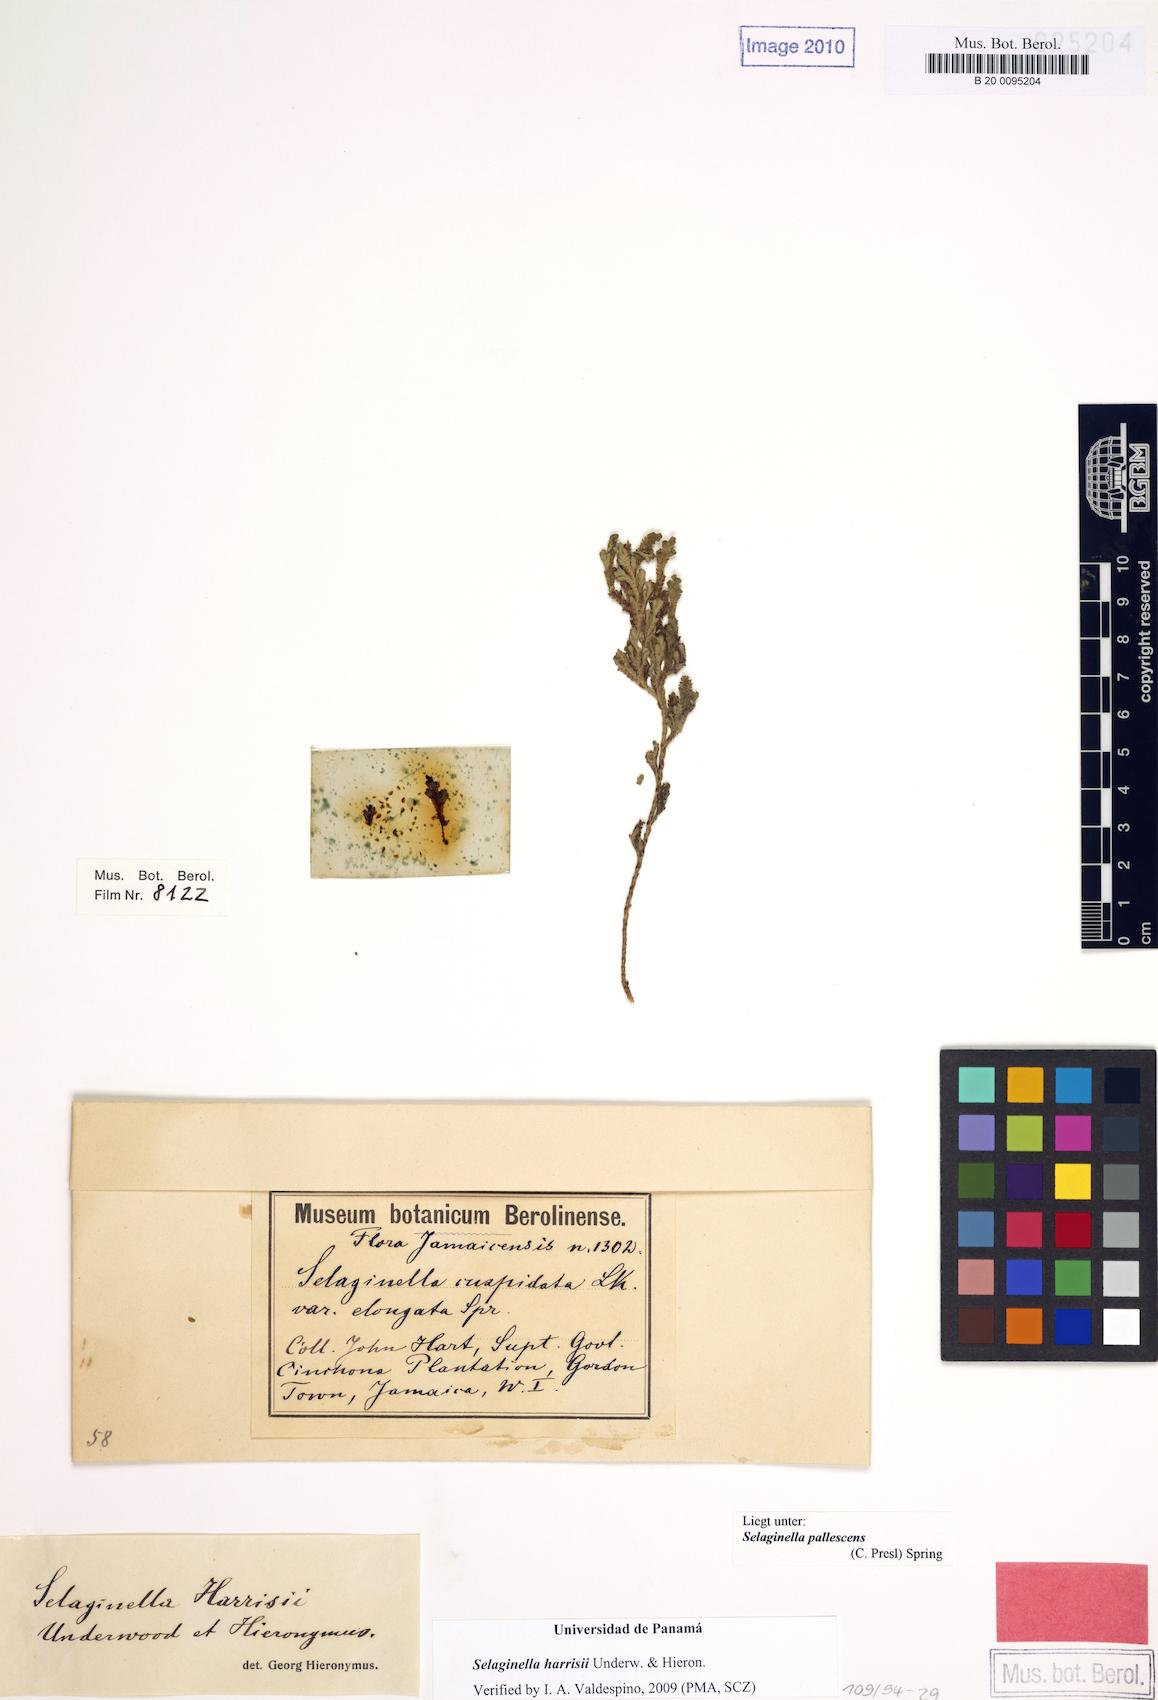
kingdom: Plantae
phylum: Tracheophyta
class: Lycopodiopsida
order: Selaginellales
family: Selaginellaceae
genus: Selaginella
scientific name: Selaginella harrisii
